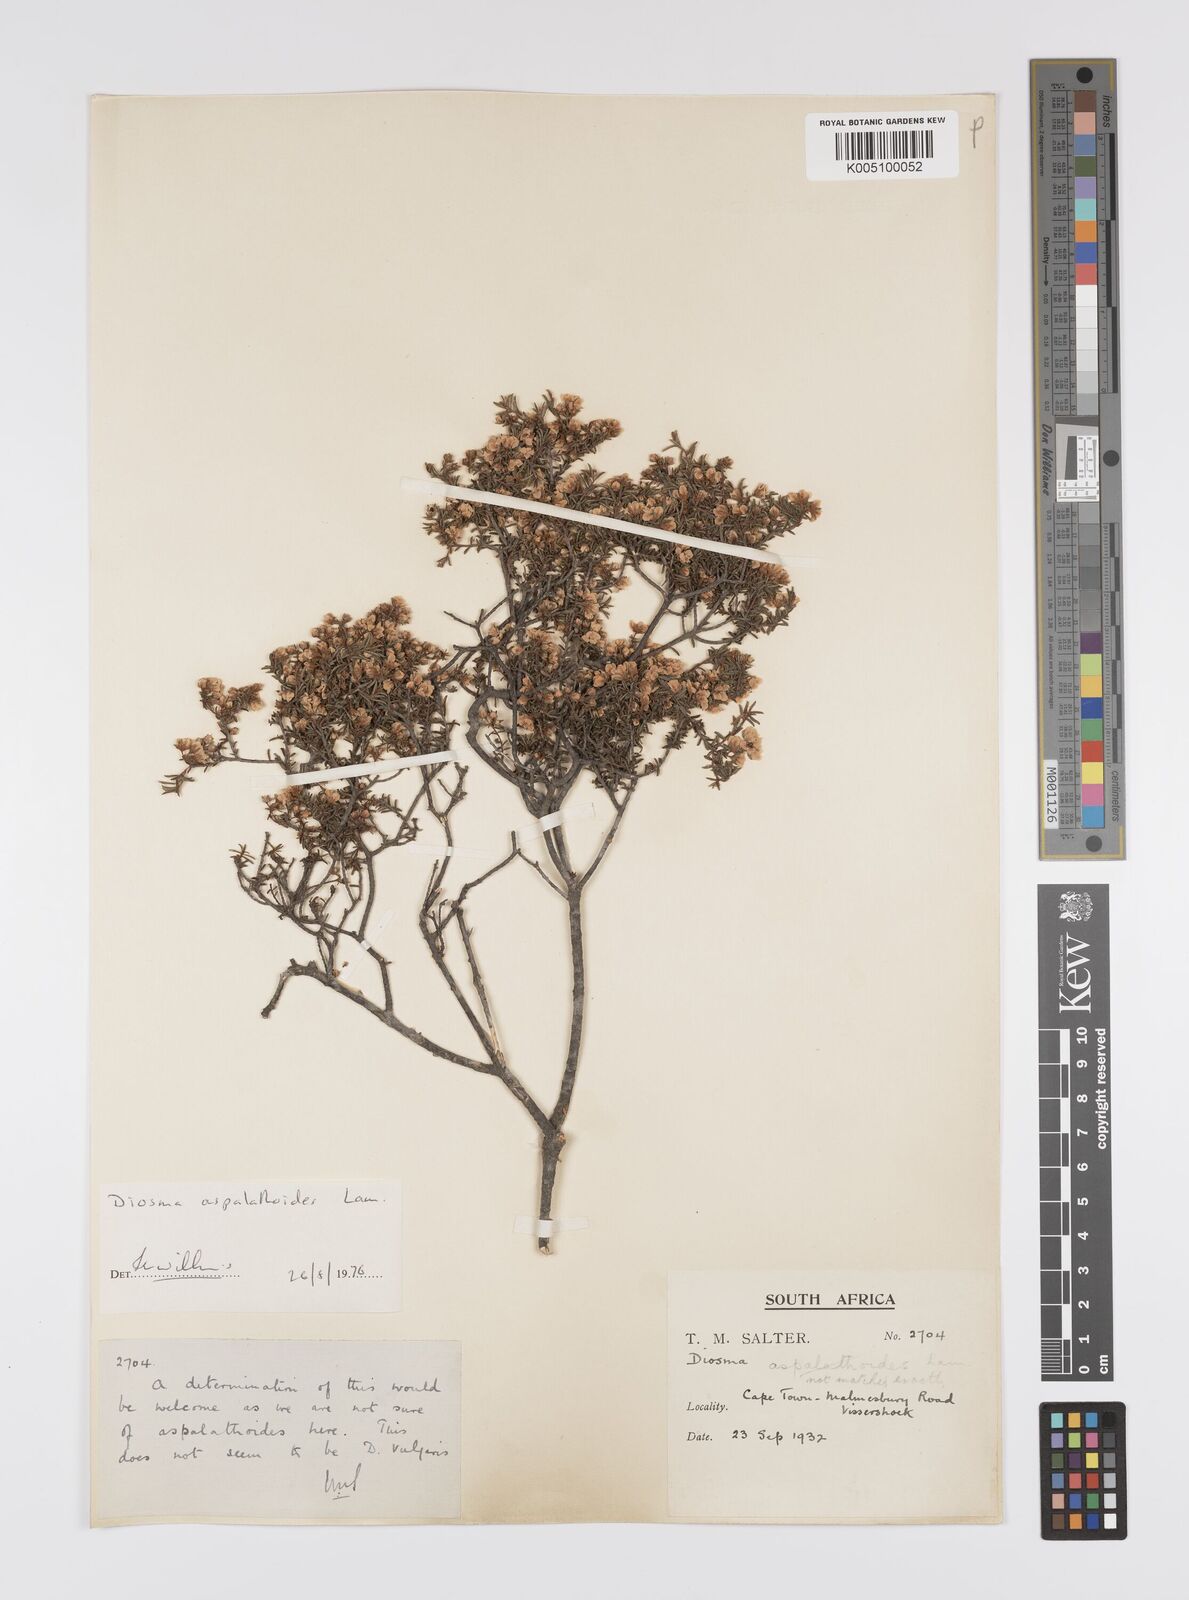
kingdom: Plantae
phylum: Tracheophyta
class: Magnoliopsida
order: Sapindales
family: Rutaceae
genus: Diosma
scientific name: Diosma aspalathoides
